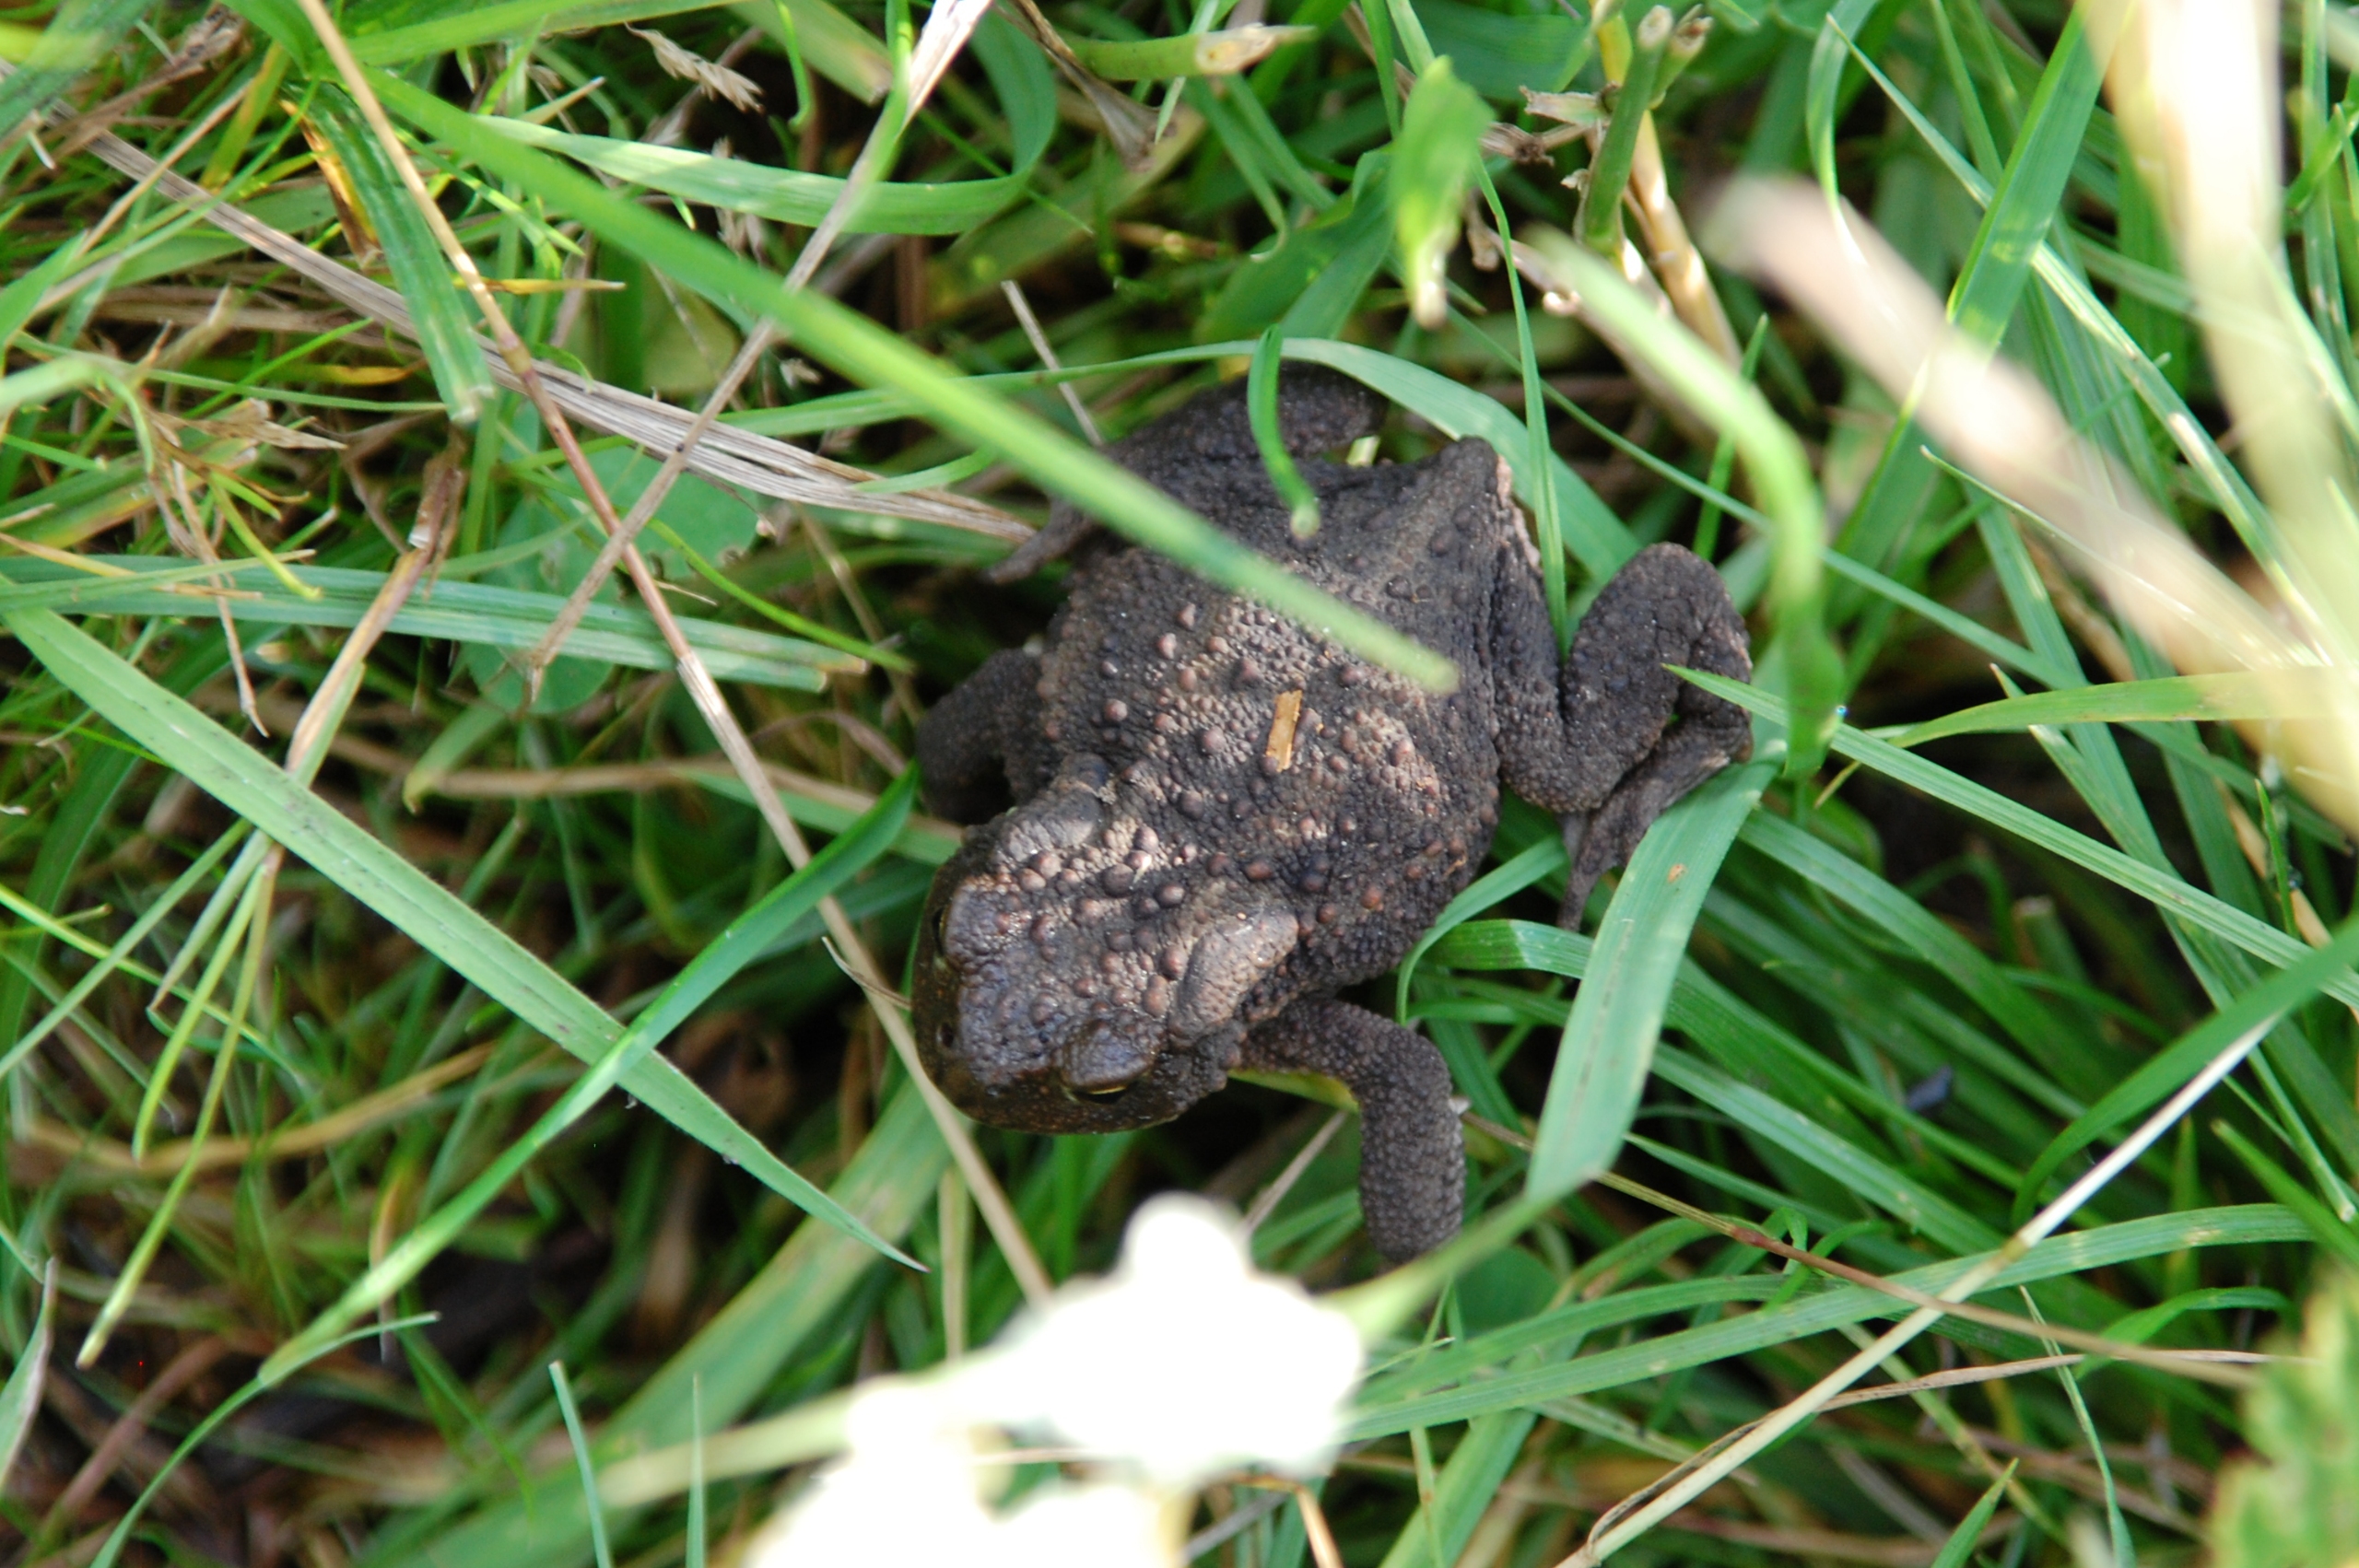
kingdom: Animalia
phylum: Chordata
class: Amphibia
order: Anura
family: Bufonidae
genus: Bufo
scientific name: Bufo bufo
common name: Skrubtudse
